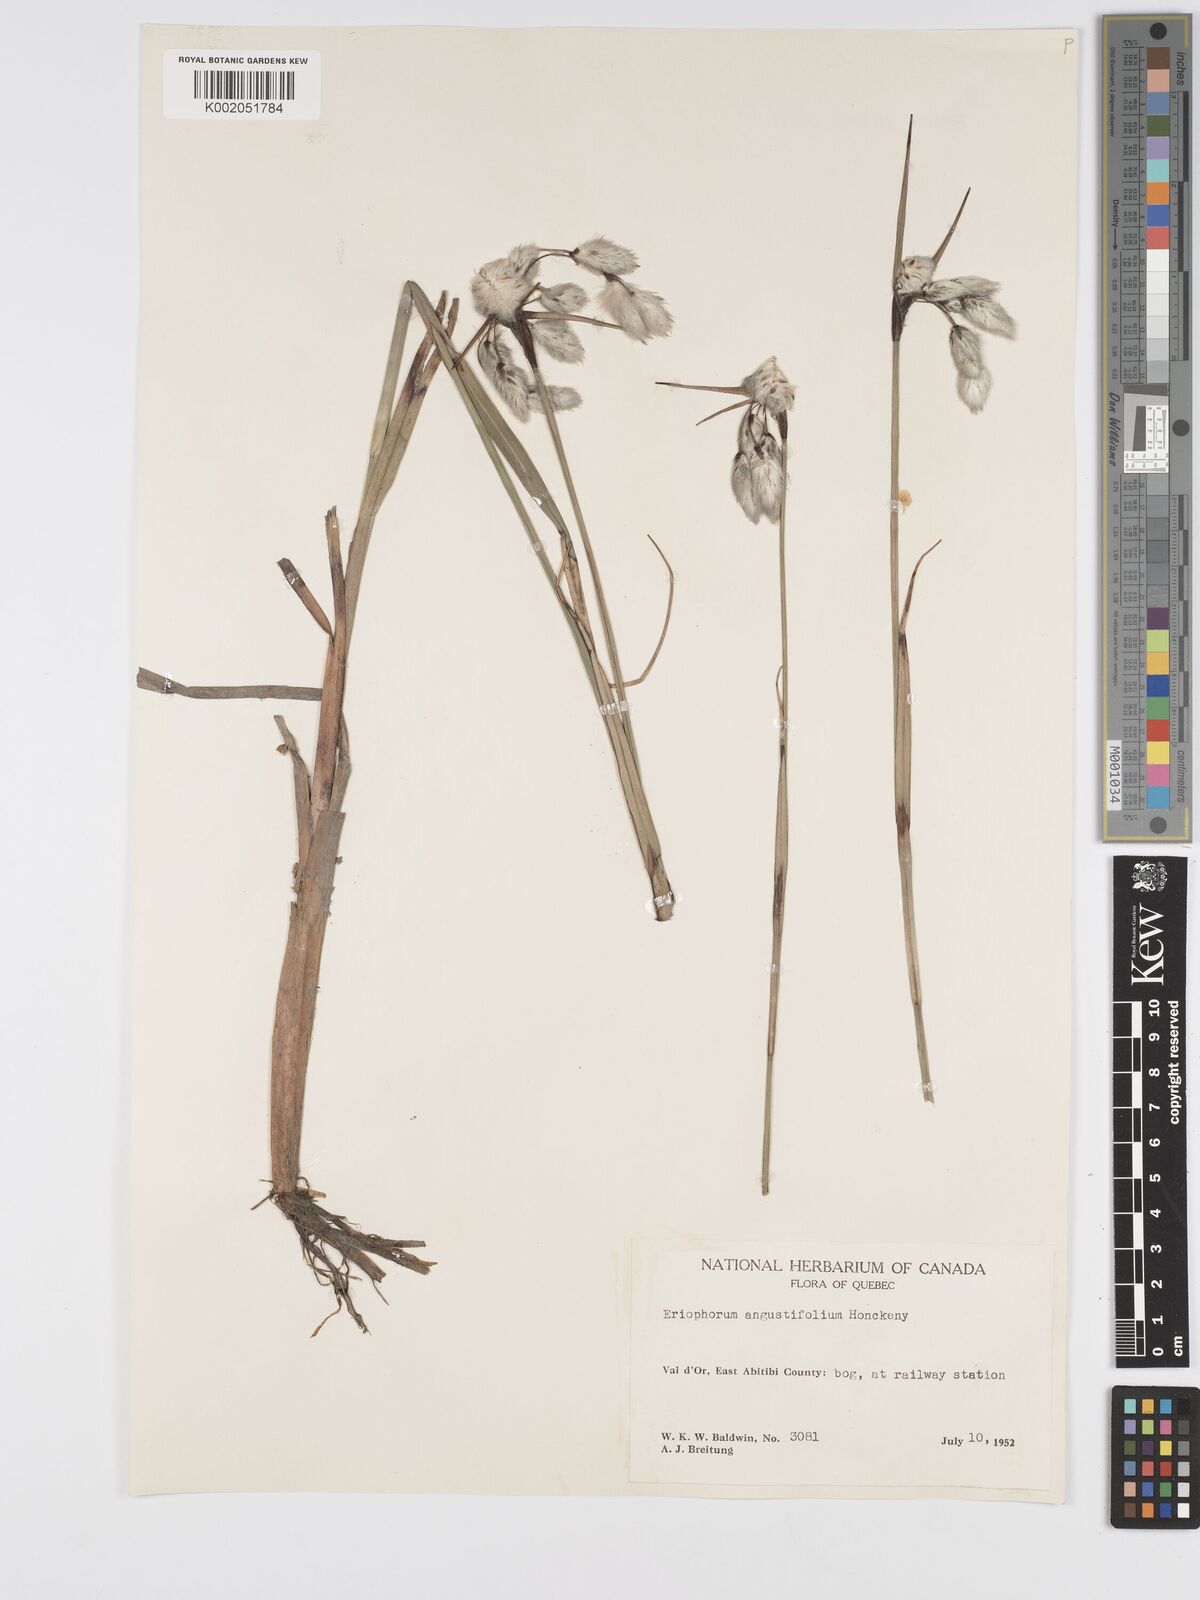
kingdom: Plantae
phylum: Tracheophyta
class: Liliopsida
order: Poales
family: Cyperaceae
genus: Eriophorum
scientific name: Eriophorum angustifolium
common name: Common cottongrass
